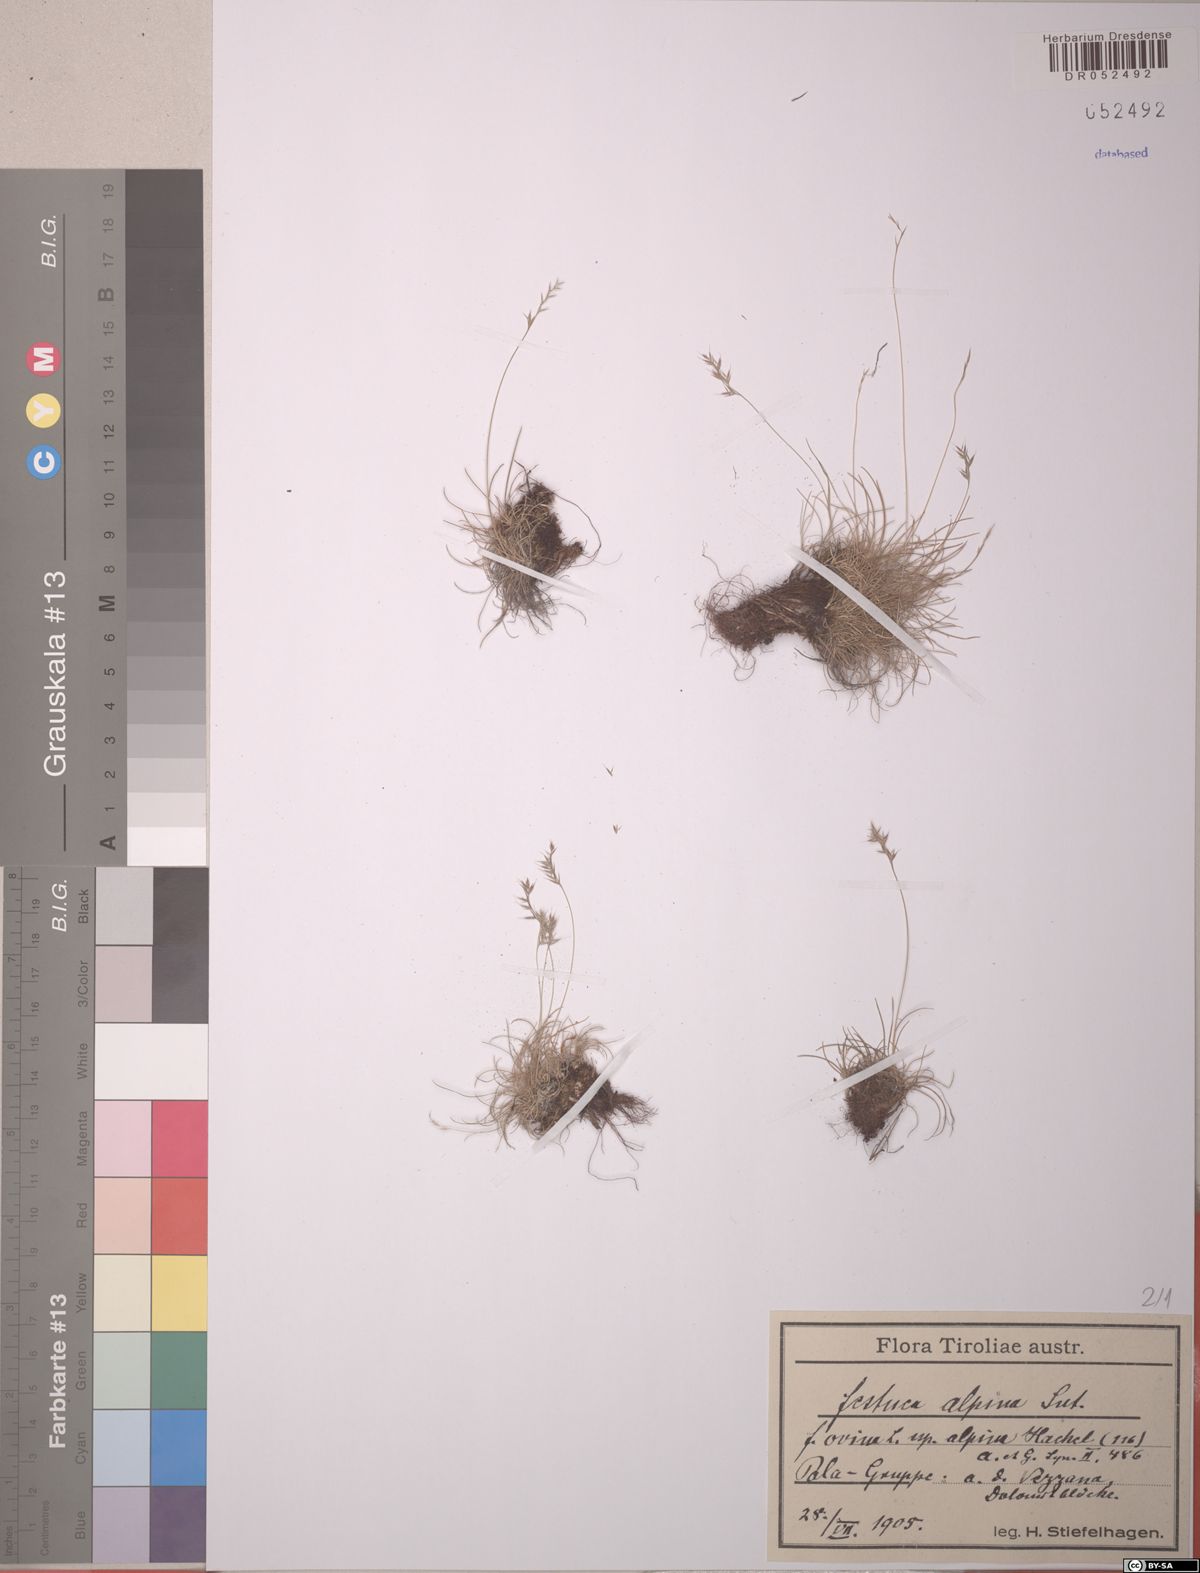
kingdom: Plantae
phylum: Tracheophyta
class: Liliopsida
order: Poales
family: Poaceae
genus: Festuca
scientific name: Festuca alpina
